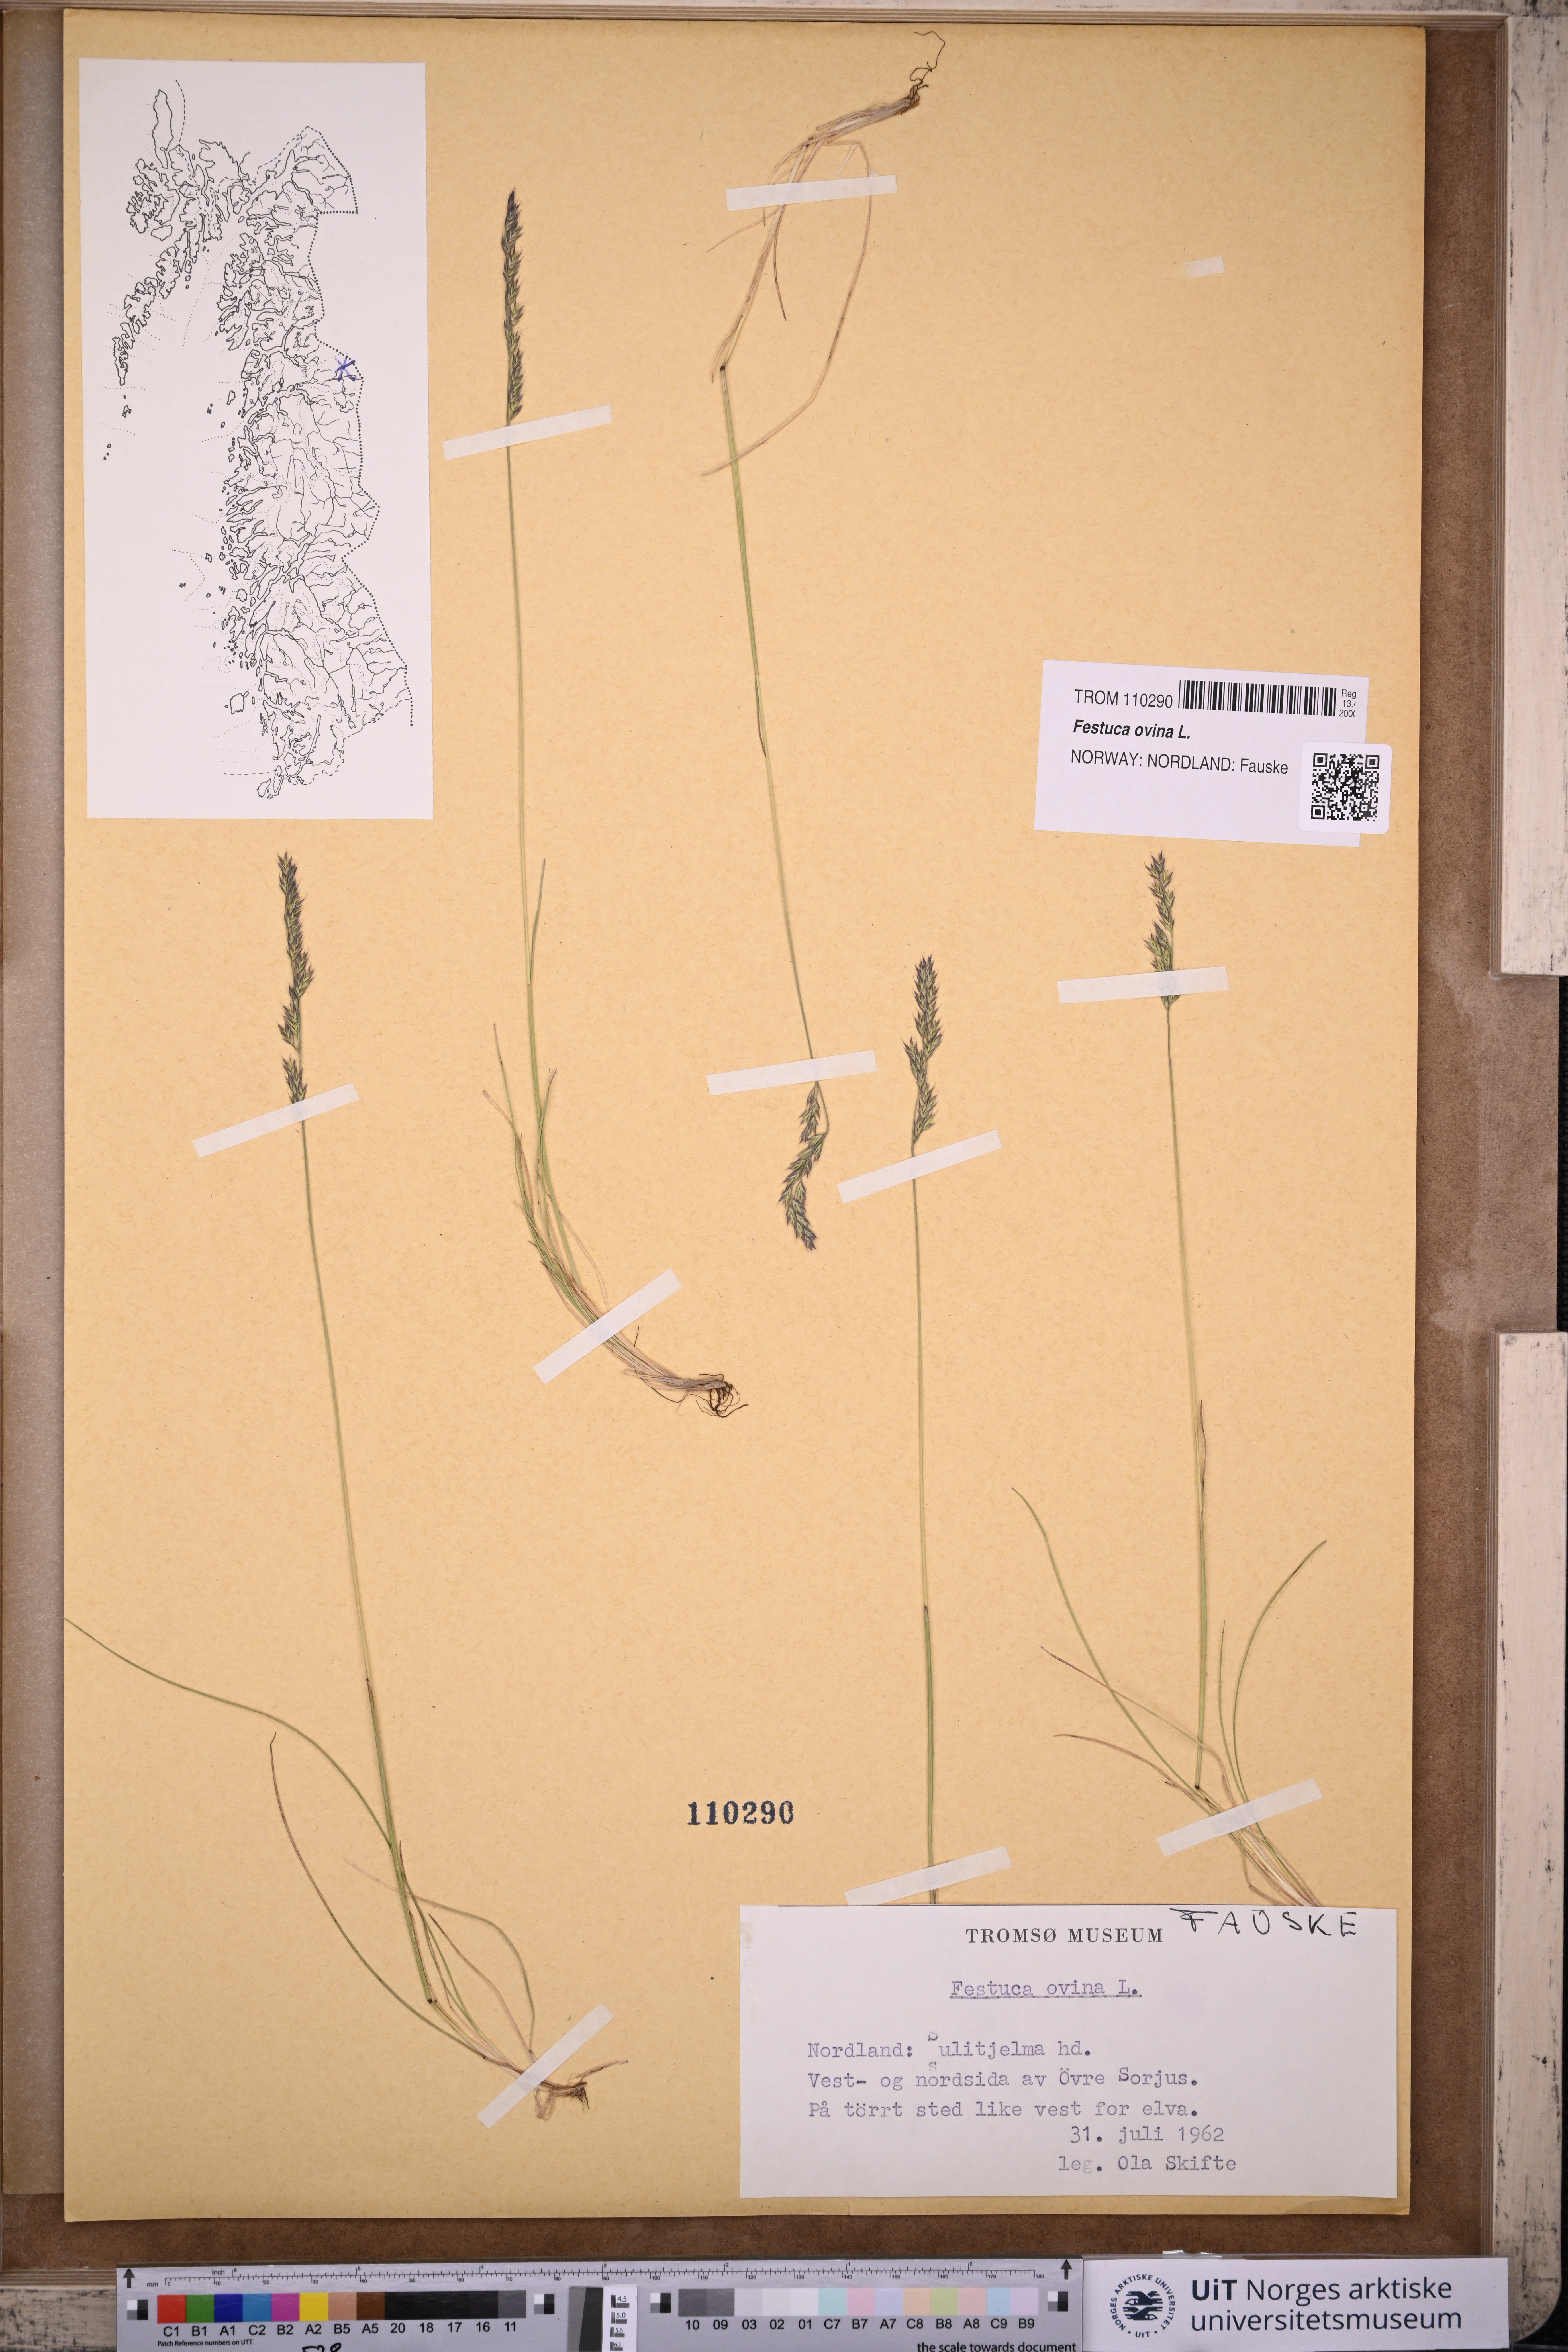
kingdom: Plantae
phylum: Tracheophyta
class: Liliopsida
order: Poales
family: Poaceae
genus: Festuca
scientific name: Festuca ovina
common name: Sheep fescue
